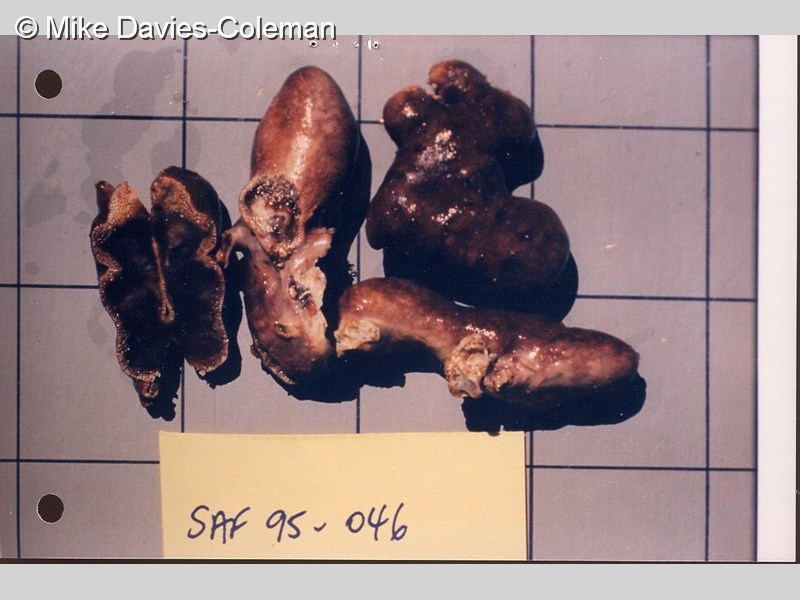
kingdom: Animalia
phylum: Chordata
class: Ascidiacea
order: Aplousobranchia
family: Polycitoridae
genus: Cystodytes
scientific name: Cystodytes
